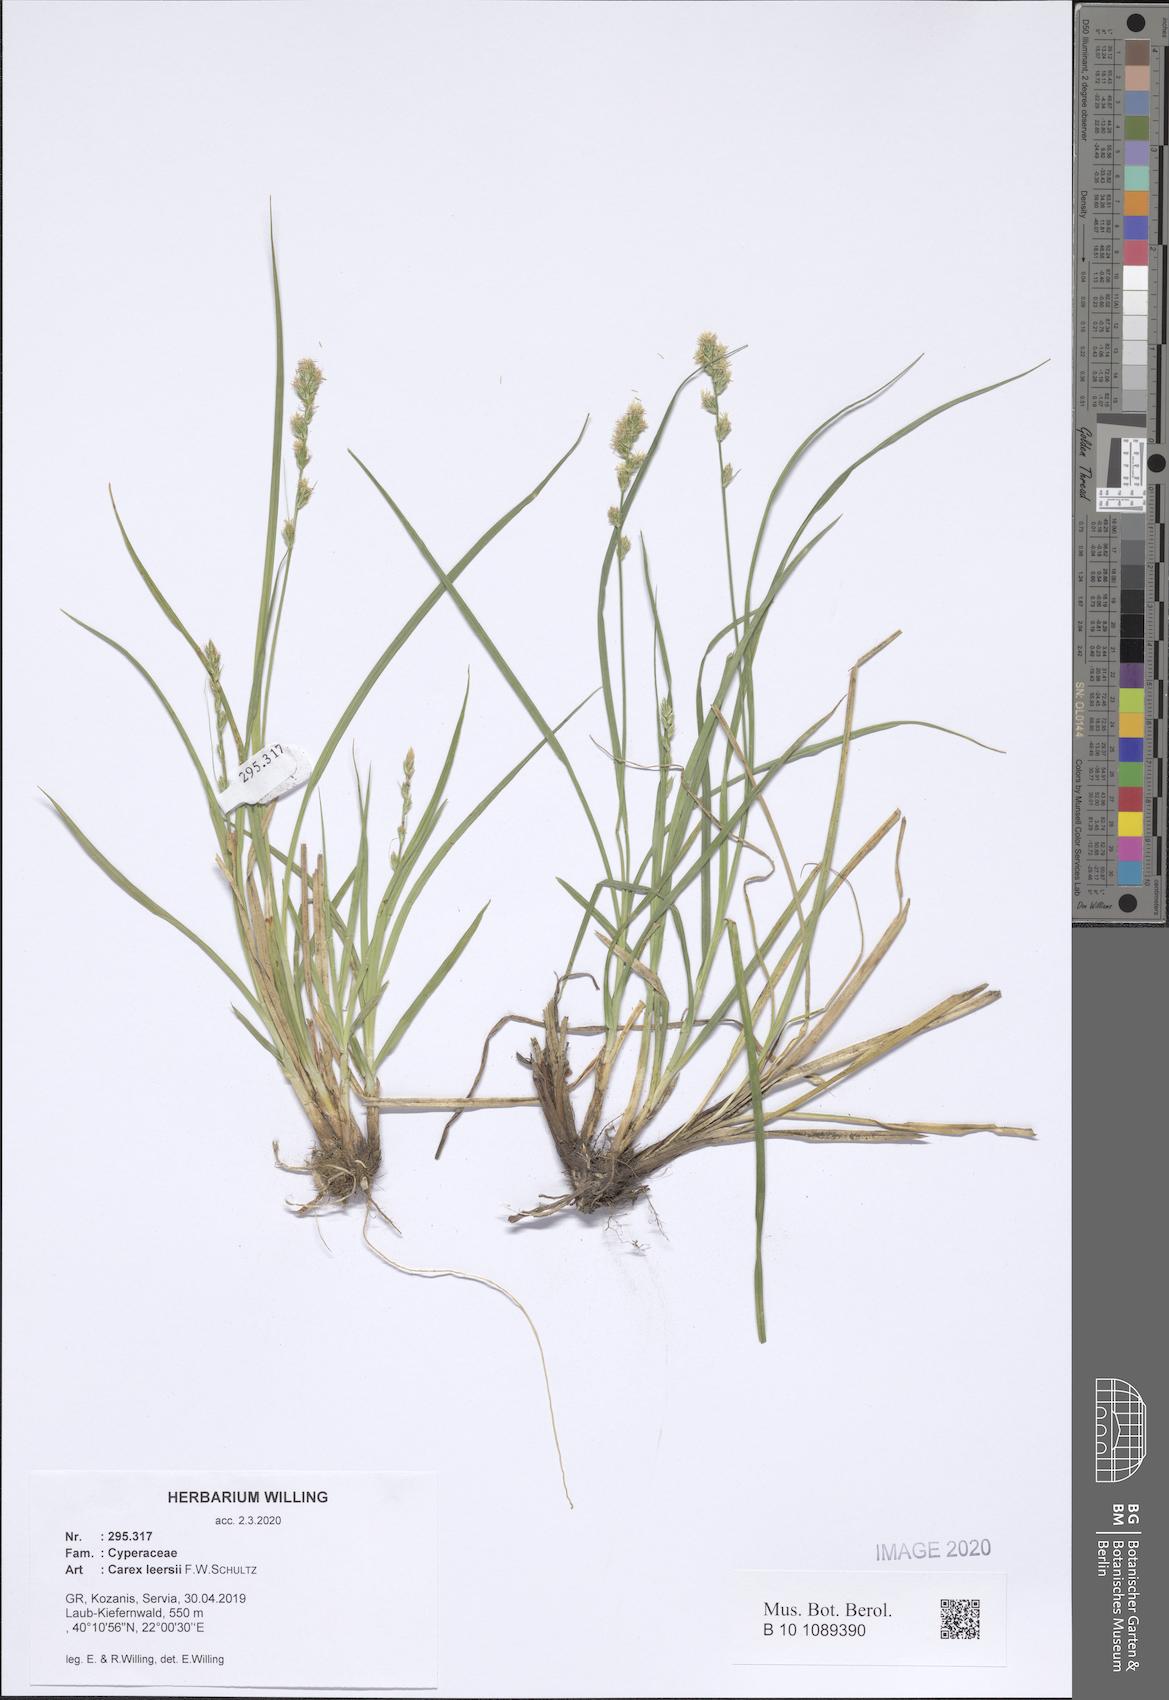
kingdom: Plantae
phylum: Tracheophyta
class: Liliopsida
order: Poales
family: Cyperaceae
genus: Carex
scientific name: Carex leersii
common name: Leers' sedge
